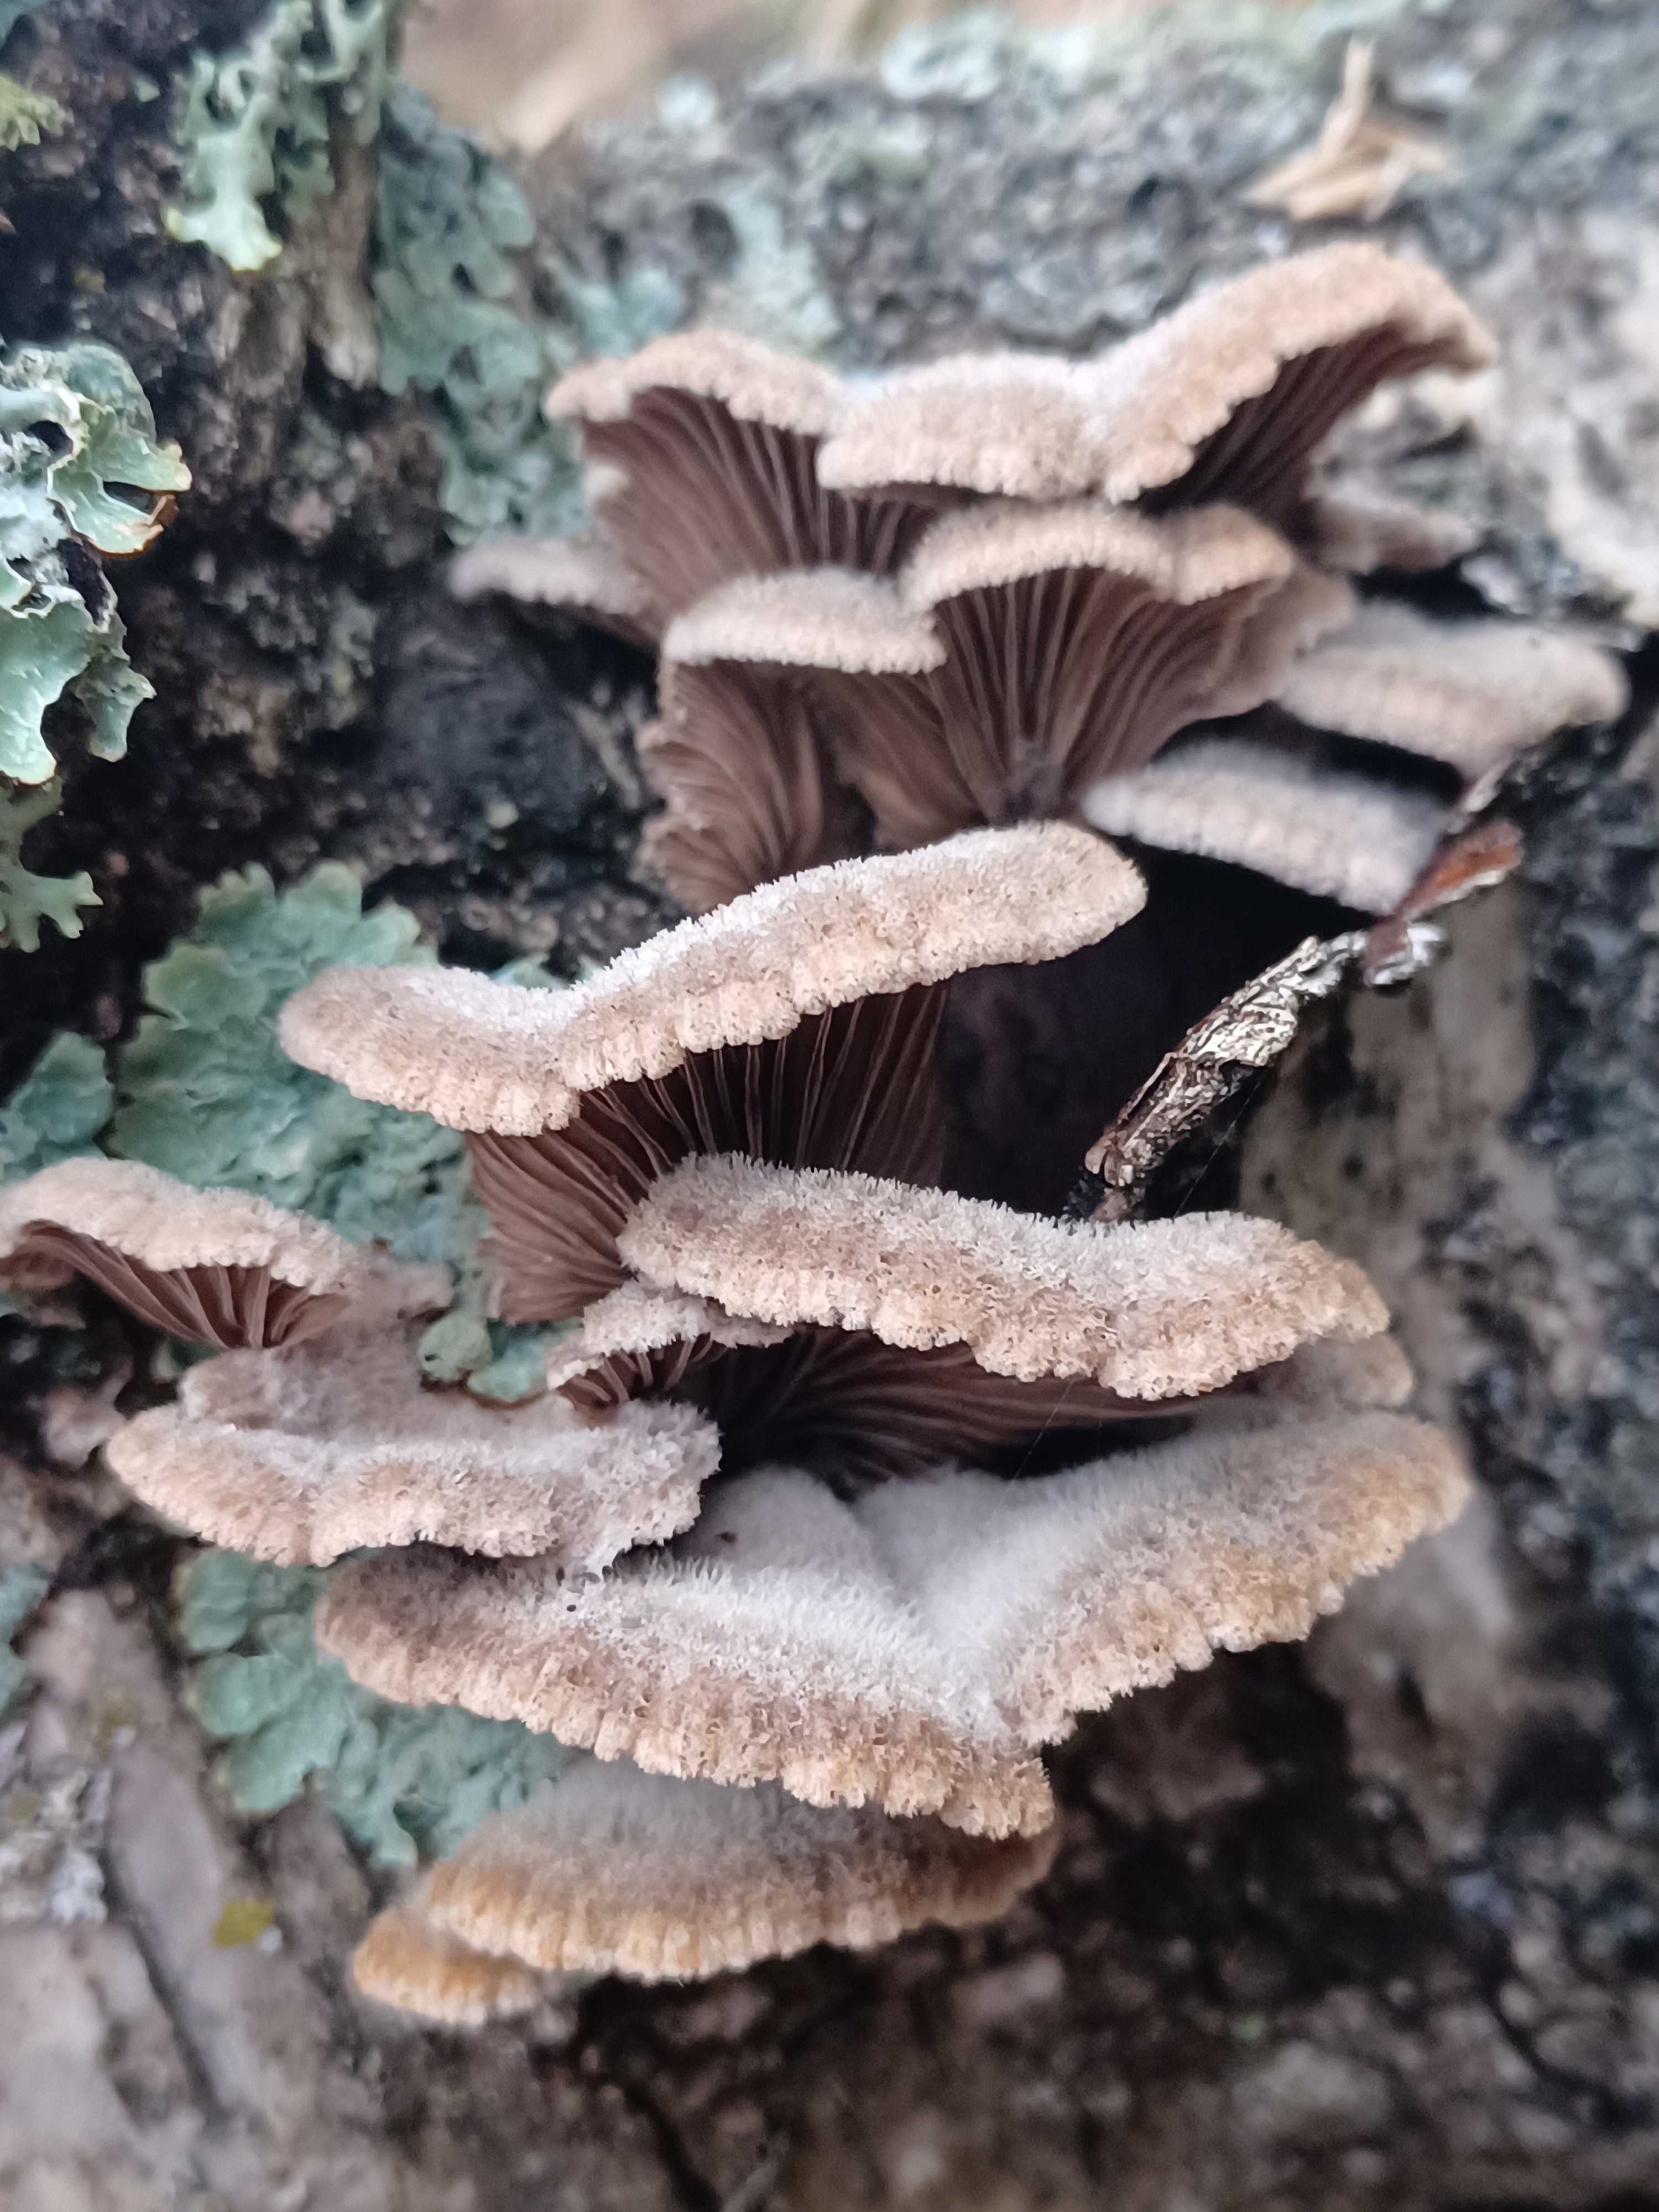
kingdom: Fungi
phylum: Basidiomycota
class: Agaricomycetes
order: Agaricales
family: Schizophyllaceae
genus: Schizophyllum
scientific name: Schizophyllum commune
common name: kløvblad
